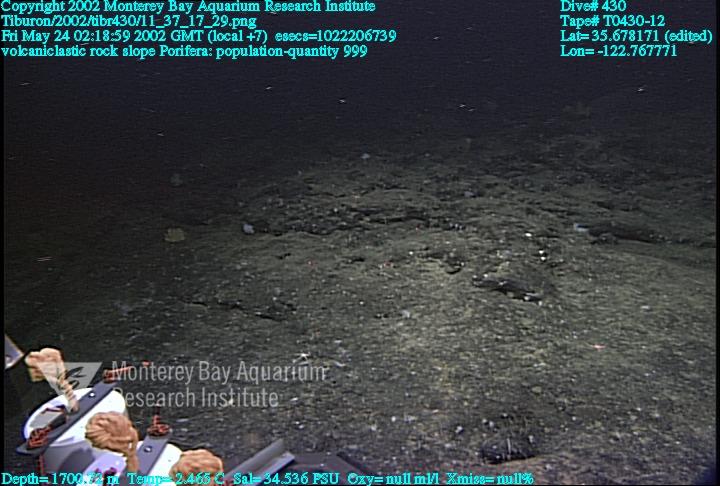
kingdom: Animalia
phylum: Porifera
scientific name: Porifera
